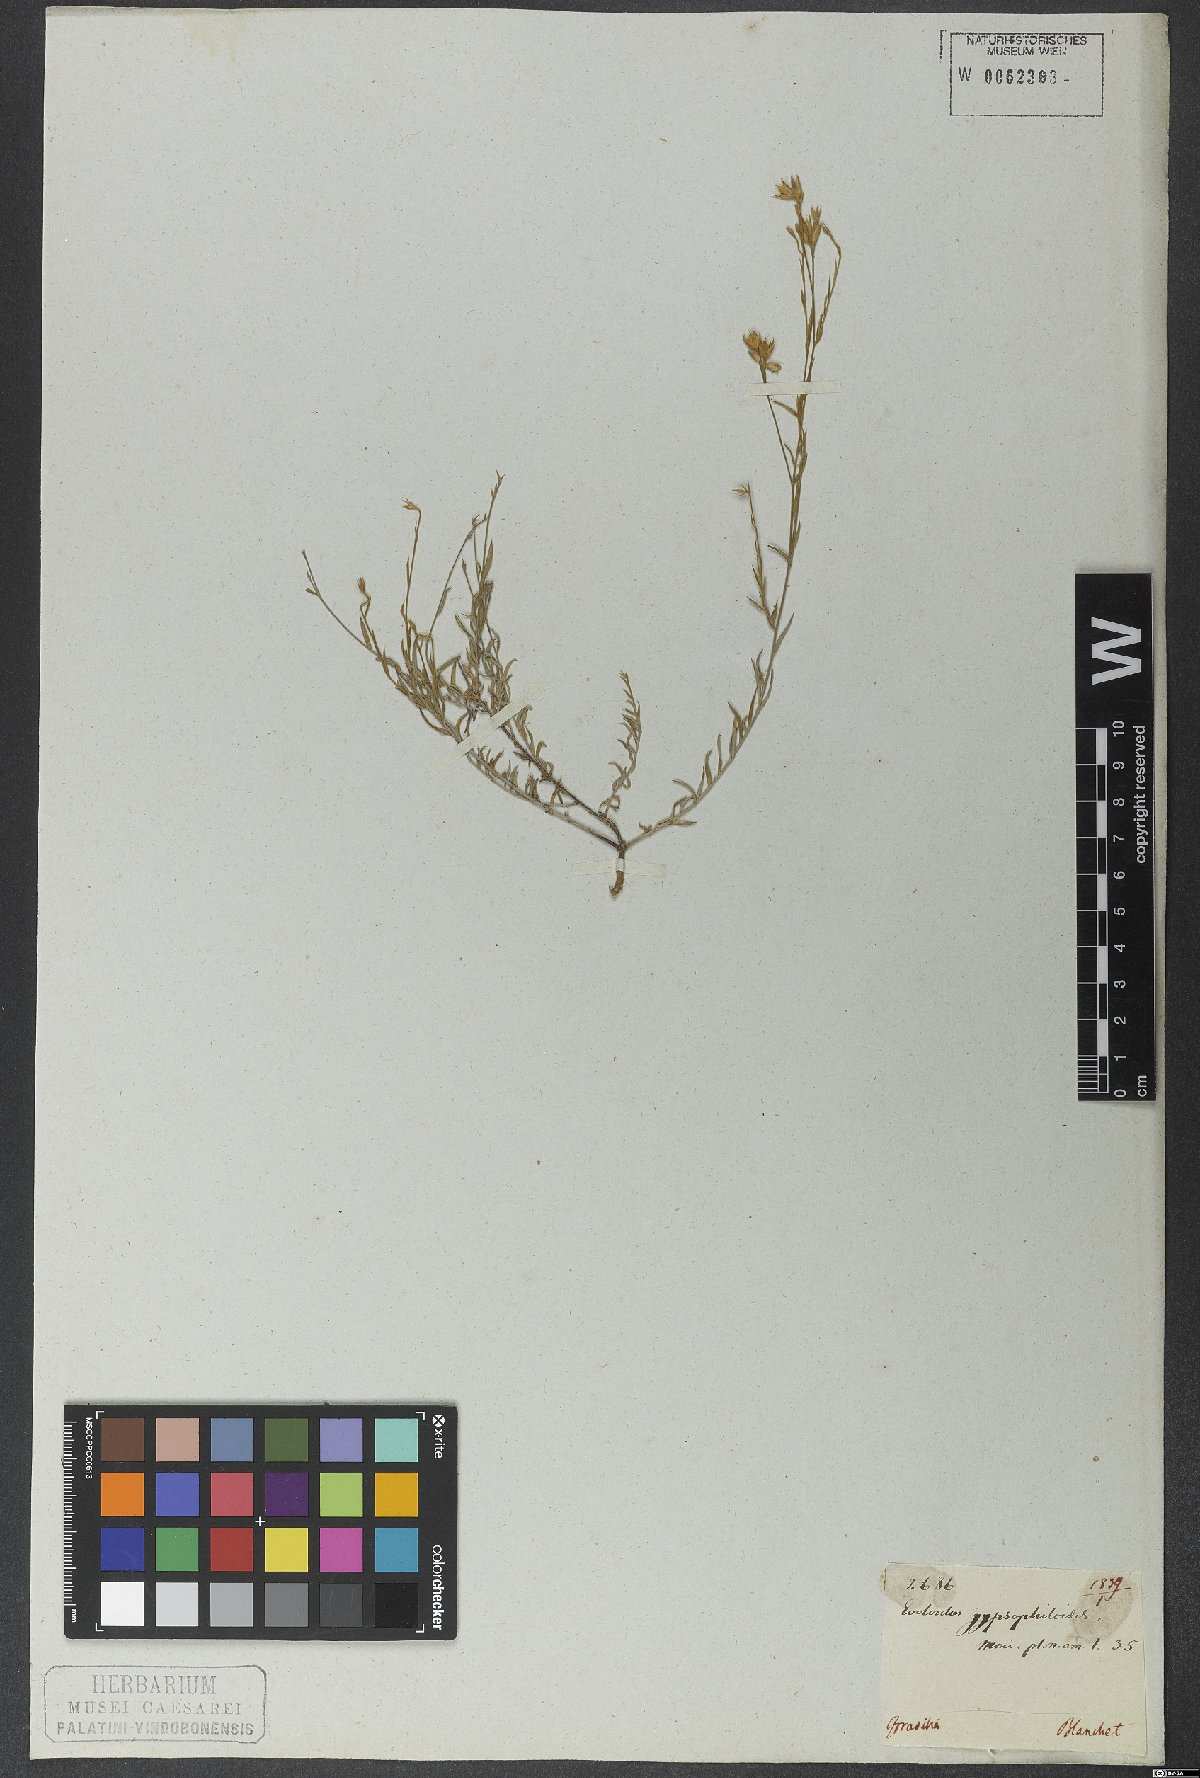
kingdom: Plantae
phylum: Tracheophyta
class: Magnoliopsida
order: Solanales
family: Convolvulaceae
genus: Evolvulus
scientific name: Evolvulus gypsophiloides
